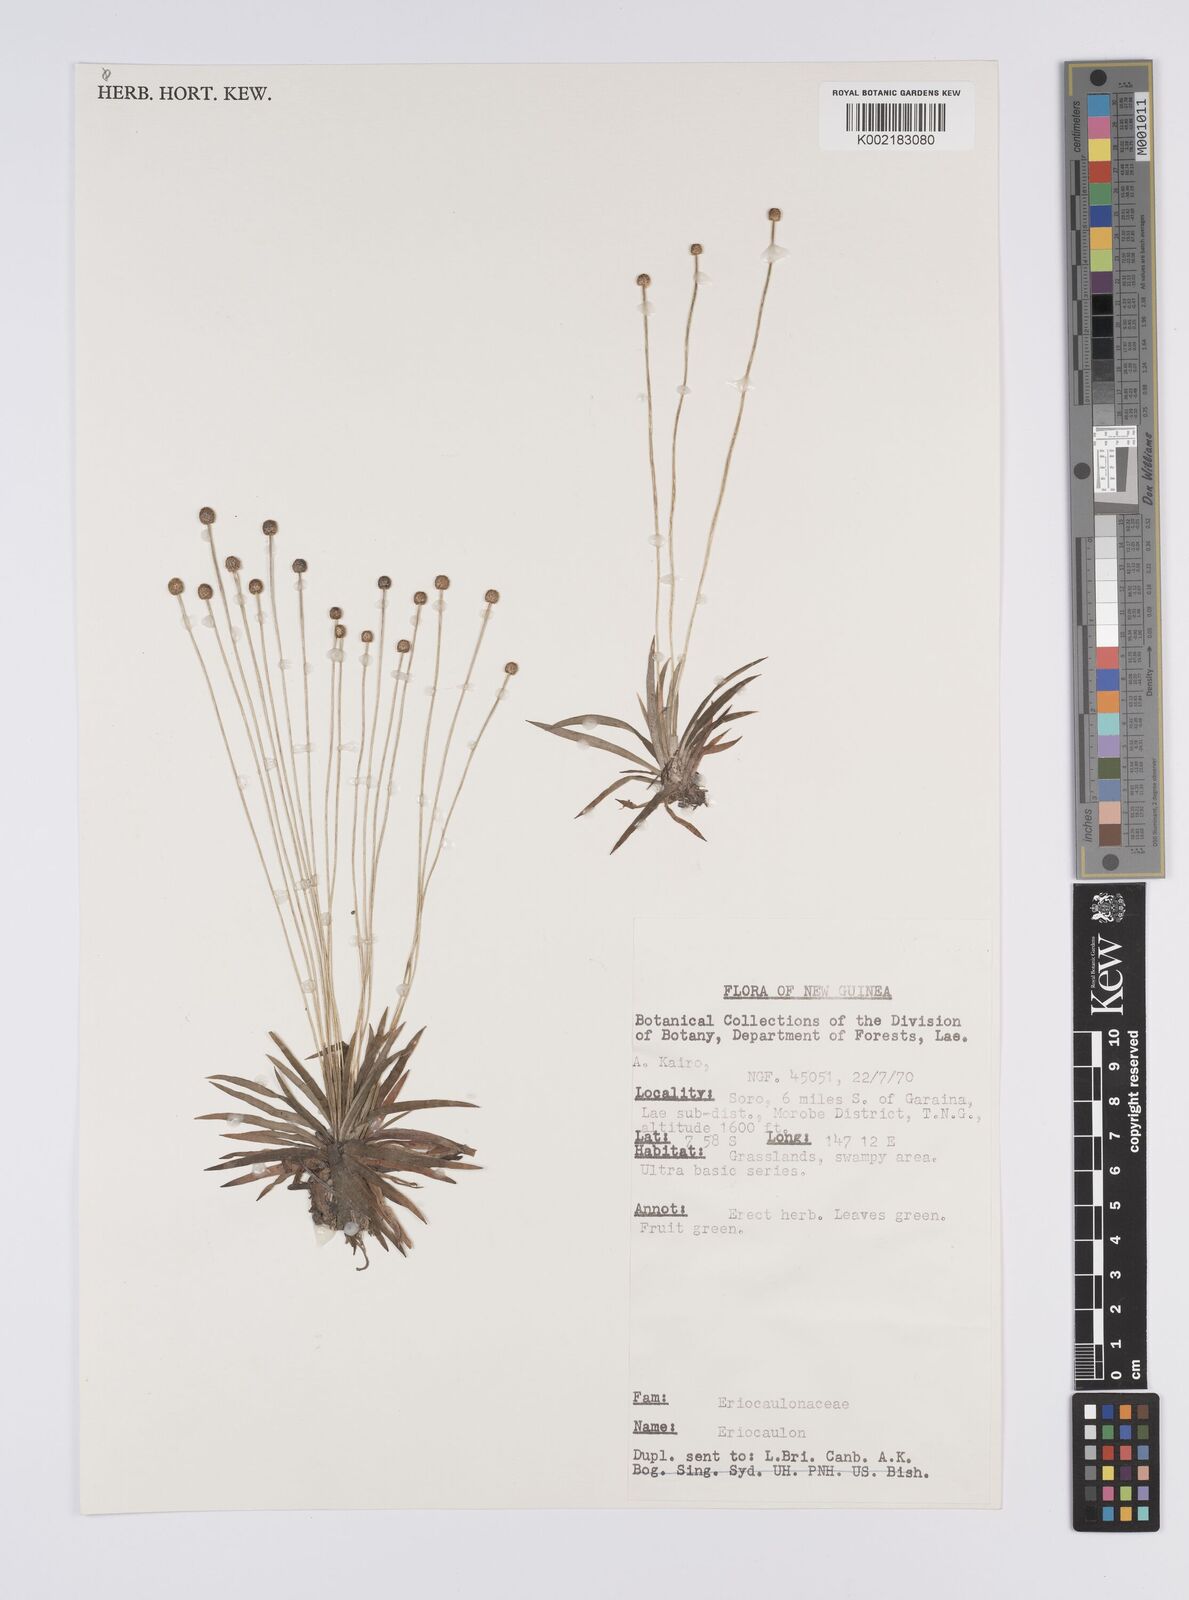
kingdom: Plantae
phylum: Tracheophyta
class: Liliopsida
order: Poales
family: Eriocaulaceae
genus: Eriocaulon
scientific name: Eriocaulon
